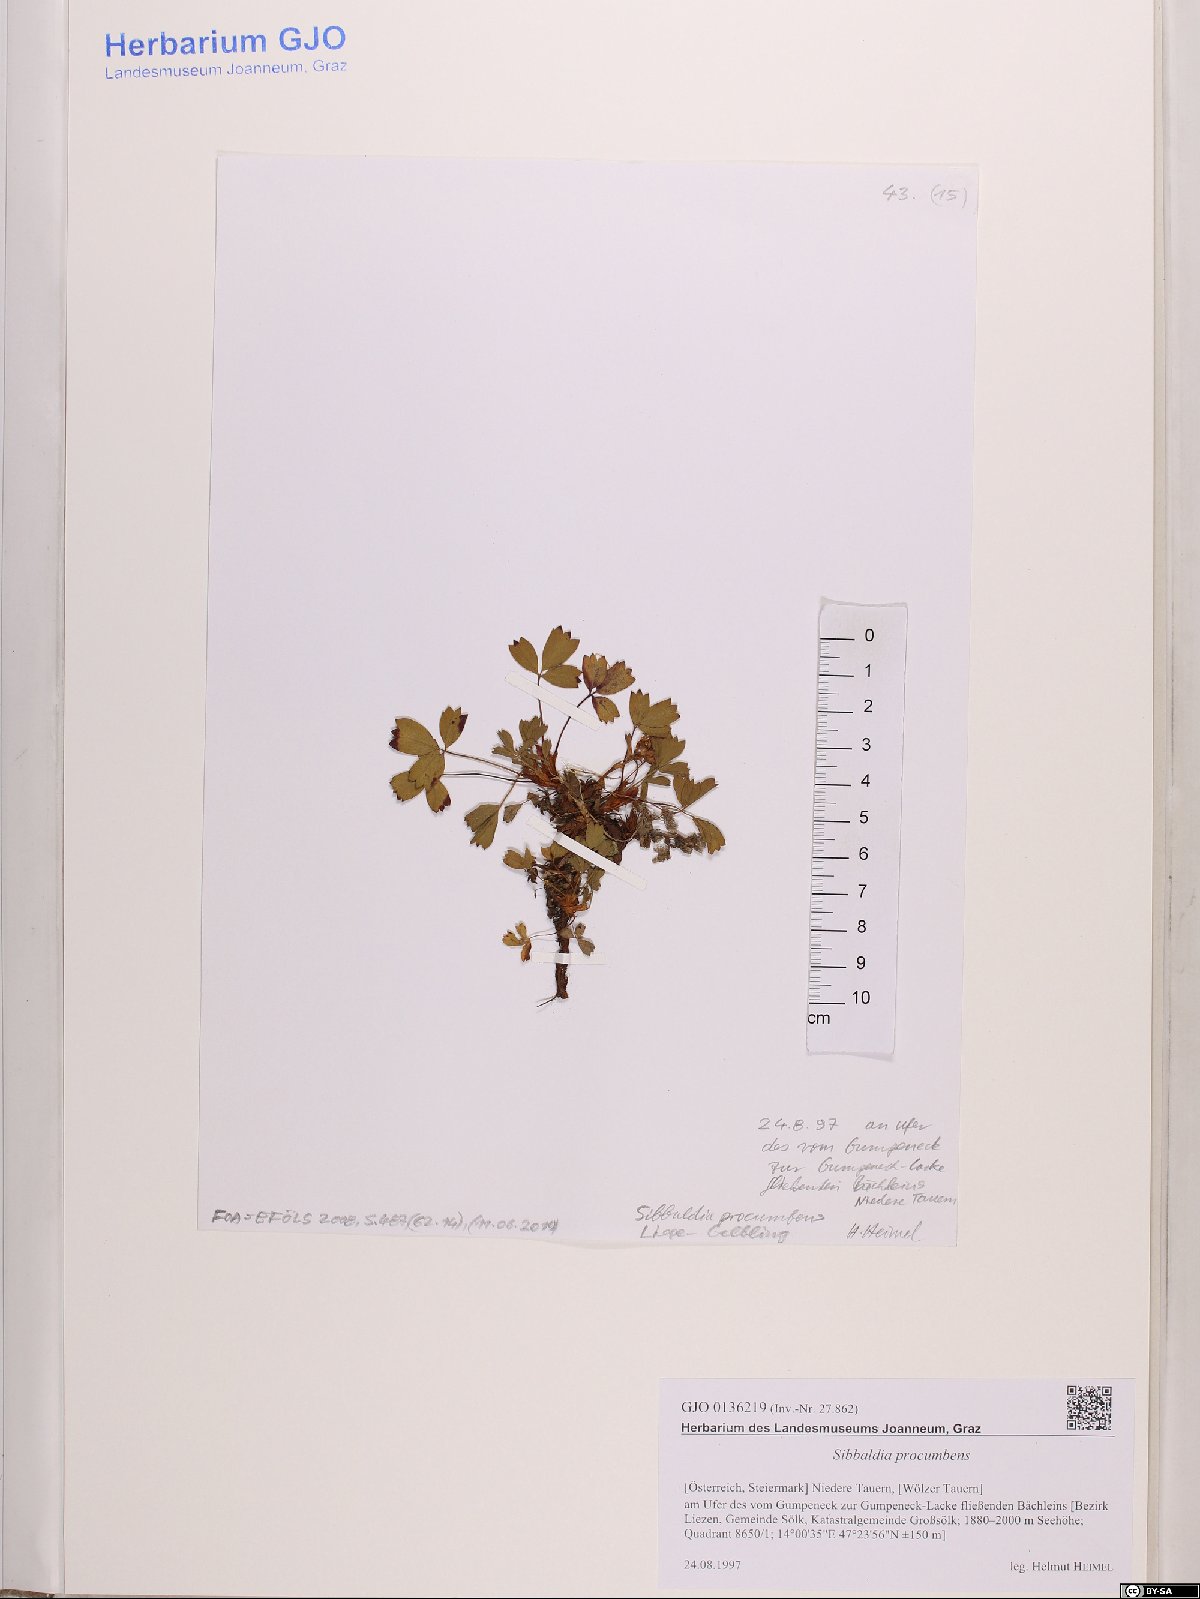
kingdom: Plantae
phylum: Tracheophyta
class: Magnoliopsida
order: Rosales
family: Rosaceae
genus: Sibbaldia
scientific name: Sibbaldia procumbens
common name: Creeping sibbaldia
